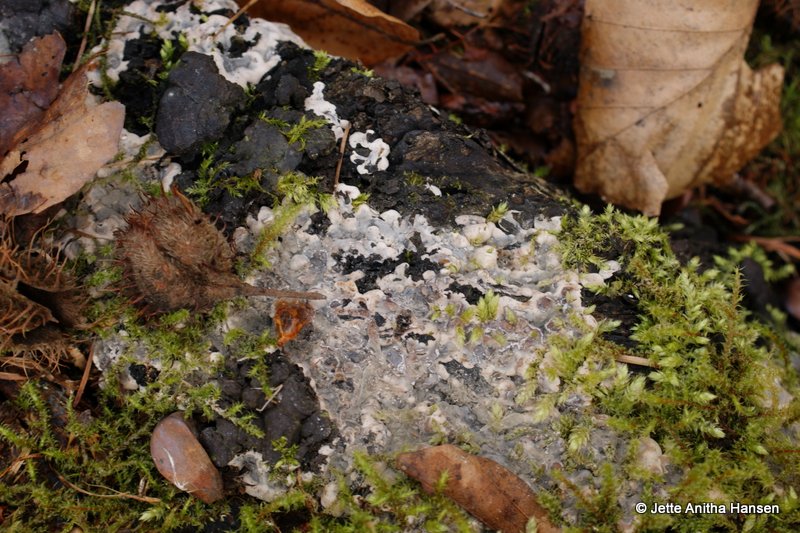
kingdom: Fungi
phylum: Ascomycota
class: Sordariomycetes
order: Xylariales
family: Xylariaceae
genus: Kretzschmaria
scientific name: Kretzschmaria deusta
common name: stor kulsvamp
